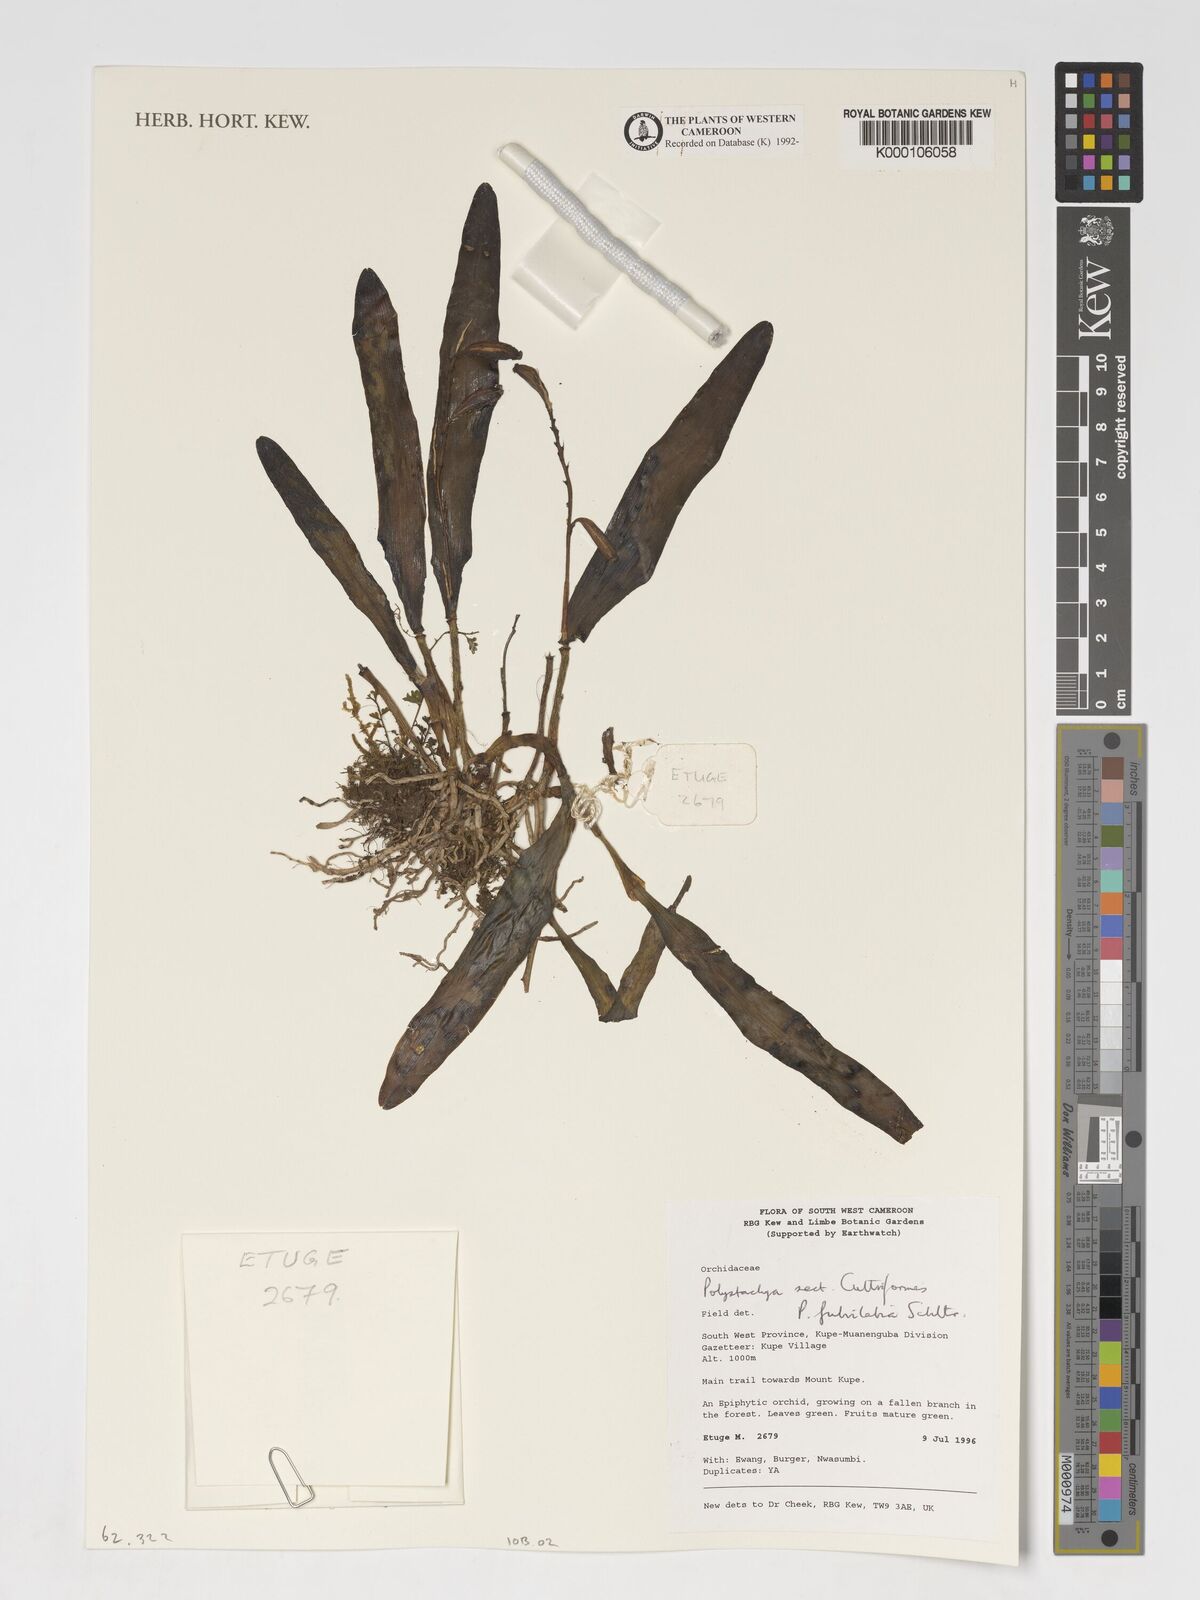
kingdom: Plantae
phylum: Tracheophyta
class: Liliopsida
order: Asparagales
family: Orchidaceae
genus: Polystachya
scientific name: Polystachya fulvilabia
